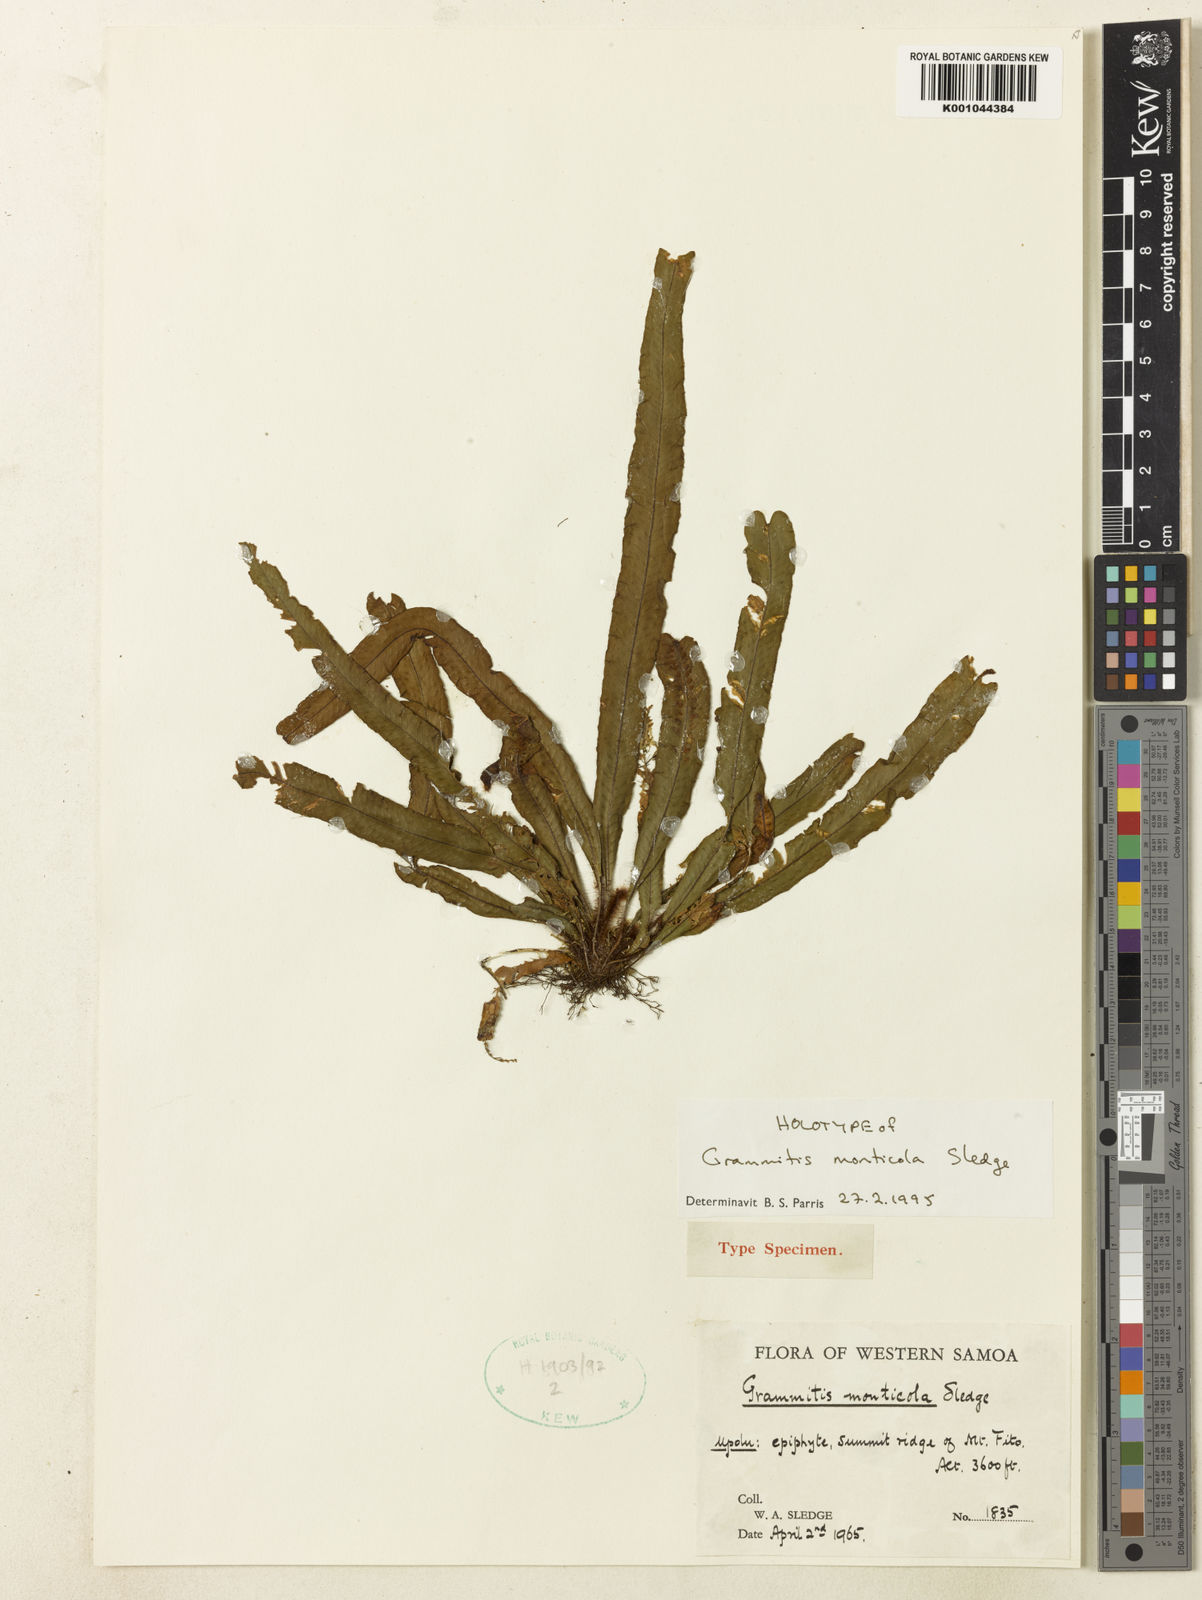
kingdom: Plantae
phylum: Tracheophyta
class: Polypodiopsida
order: Polypodiales
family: Polypodiaceae
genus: Oreogrammitis
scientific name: Oreogrammitis monticola
